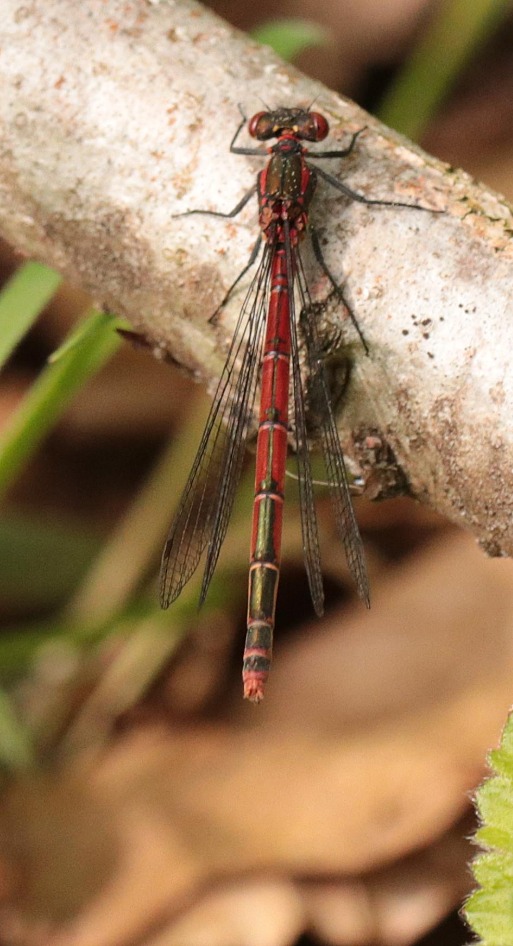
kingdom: Animalia
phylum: Arthropoda
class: Insecta
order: Odonata
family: Coenagrionidae
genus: Pyrrhosoma
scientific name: Pyrrhosoma nymphula
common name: Rød vandnymfe
